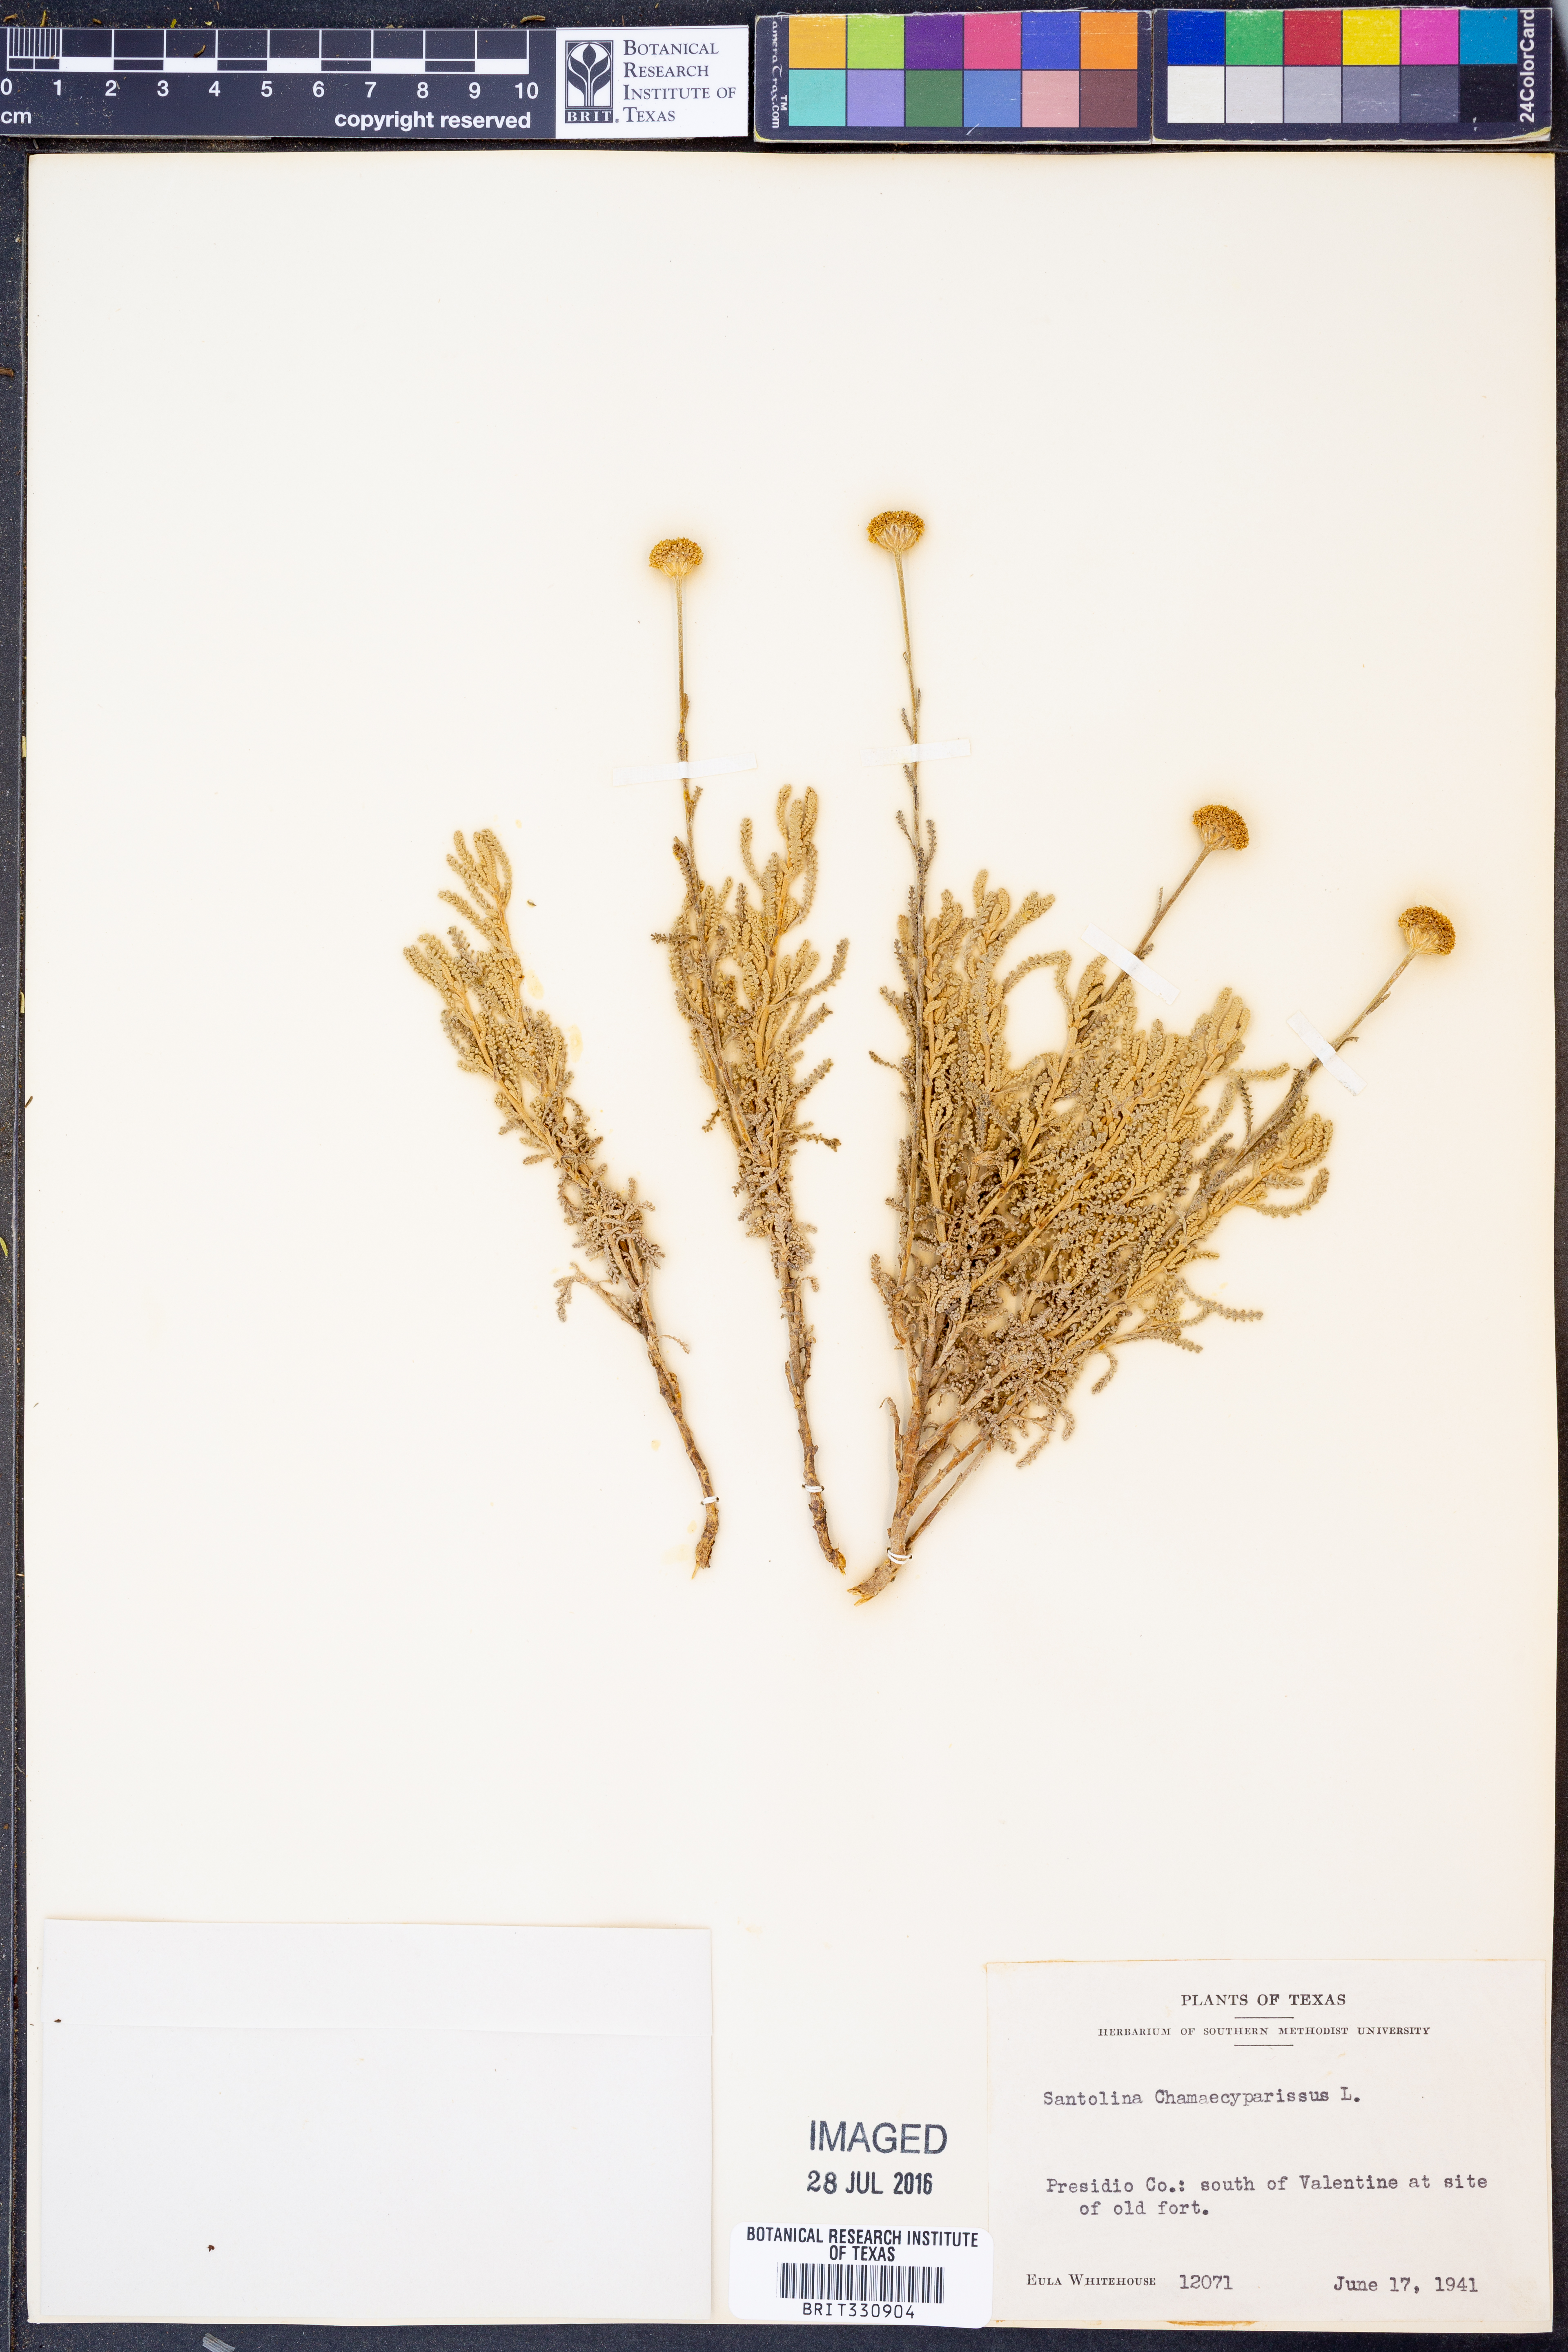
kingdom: Plantae
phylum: Tracheophyta
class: Magnoliopsida
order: Asterales
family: Asteraceae
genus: Santolina
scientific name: Santolina chamaecyparissus
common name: Lavender-cotton
